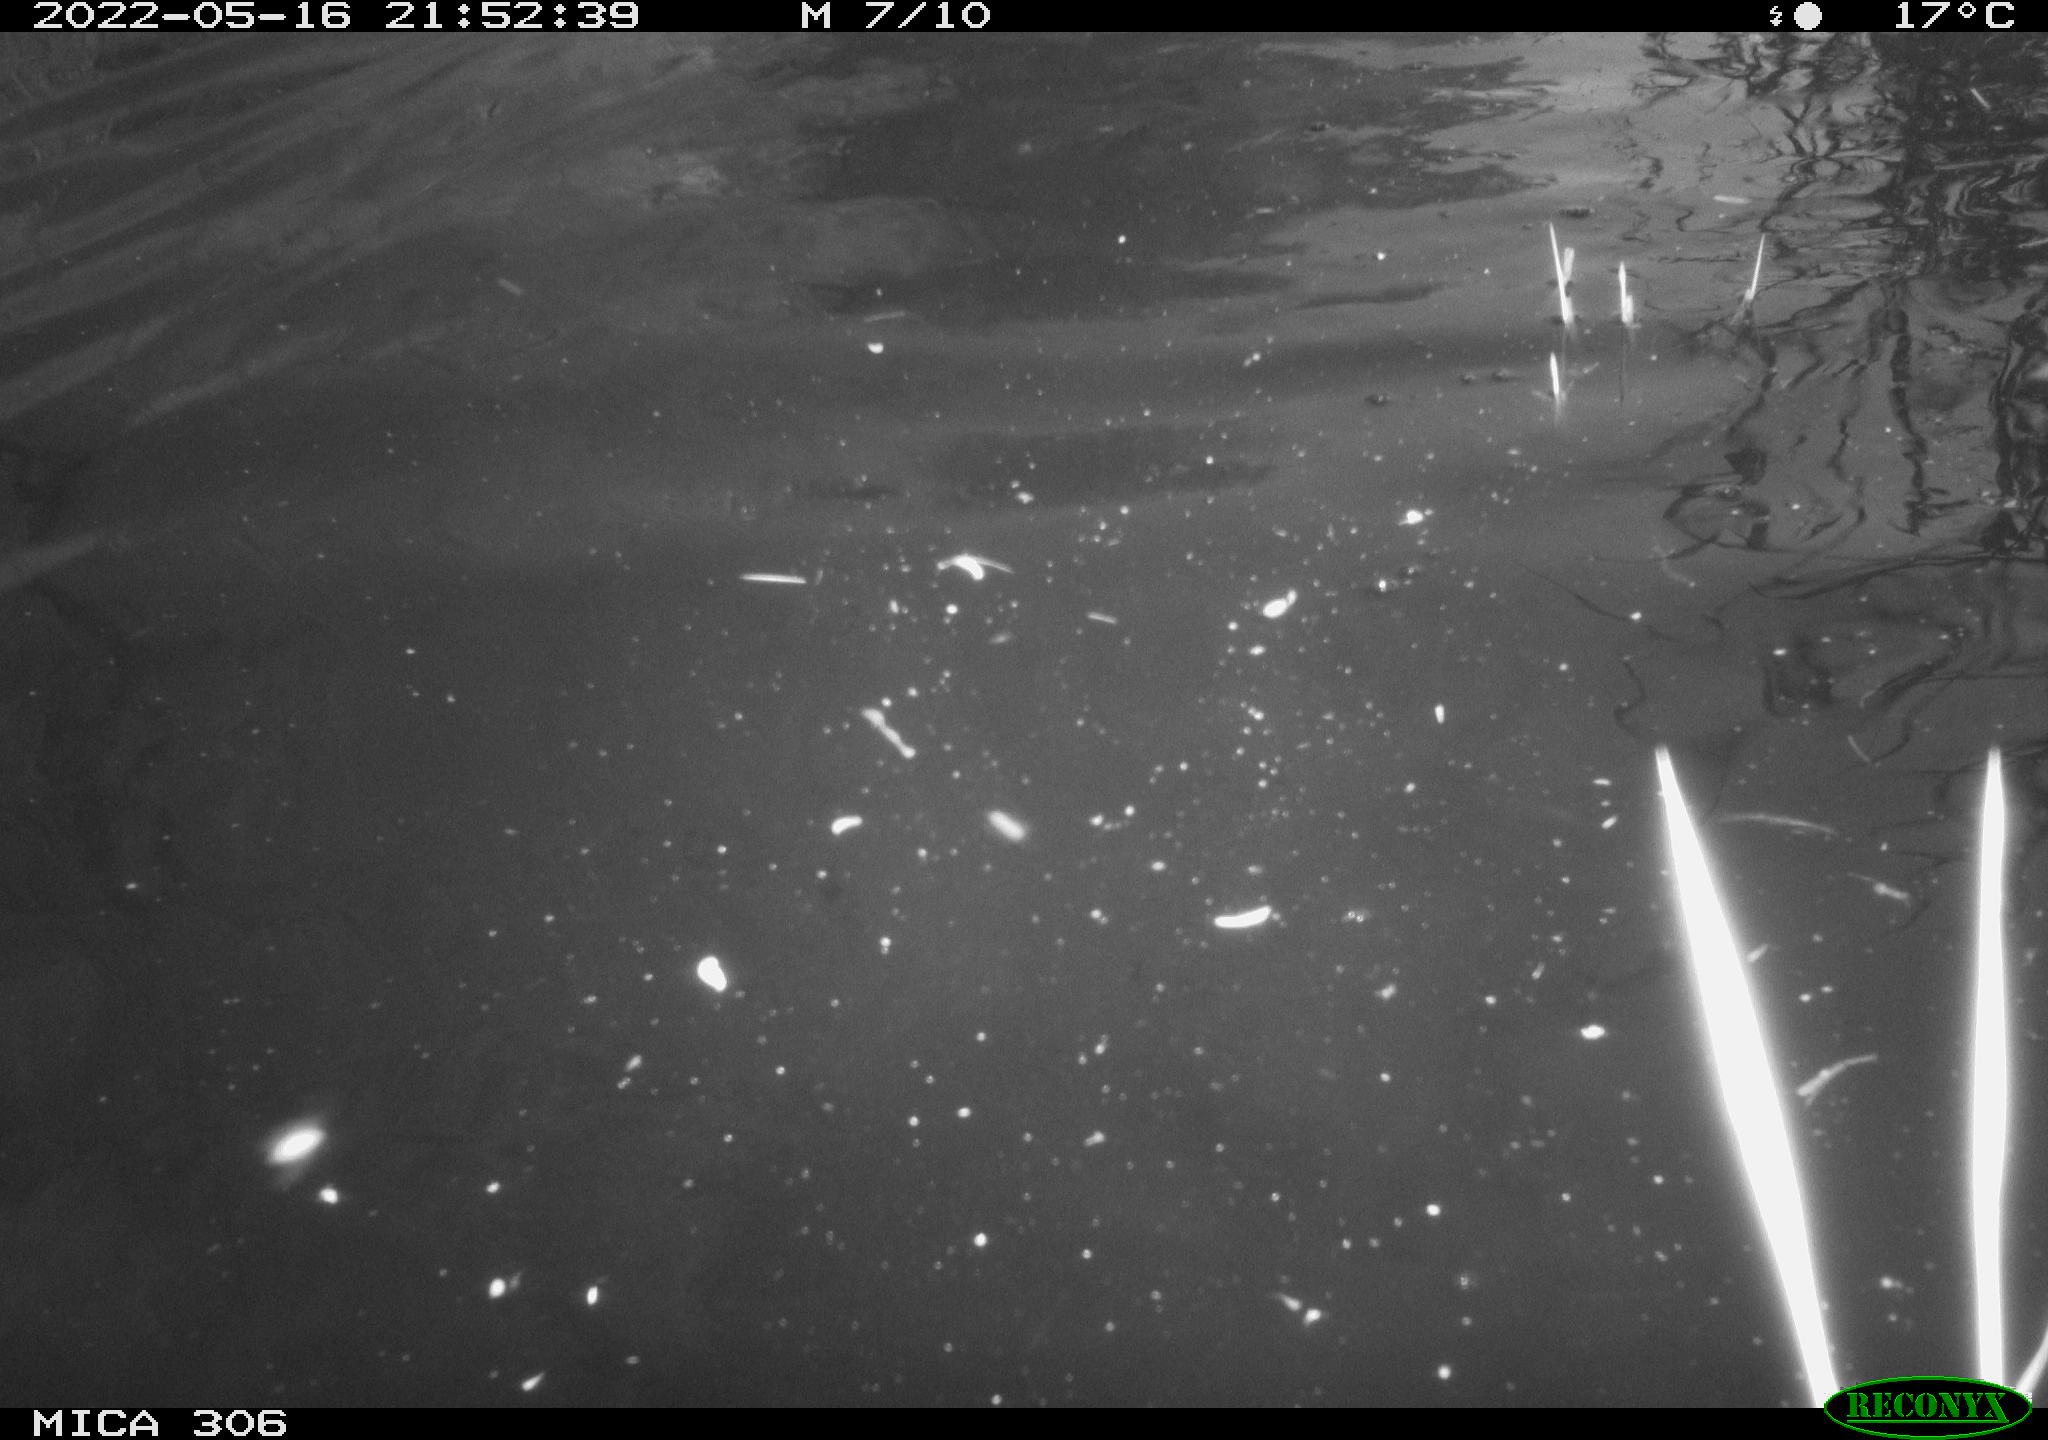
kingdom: Animalia
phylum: Chordata
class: Mammalia
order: Rodentia
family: Cricetidae
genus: Ondatra
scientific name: Ondatra zibethicus
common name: Muskrat
